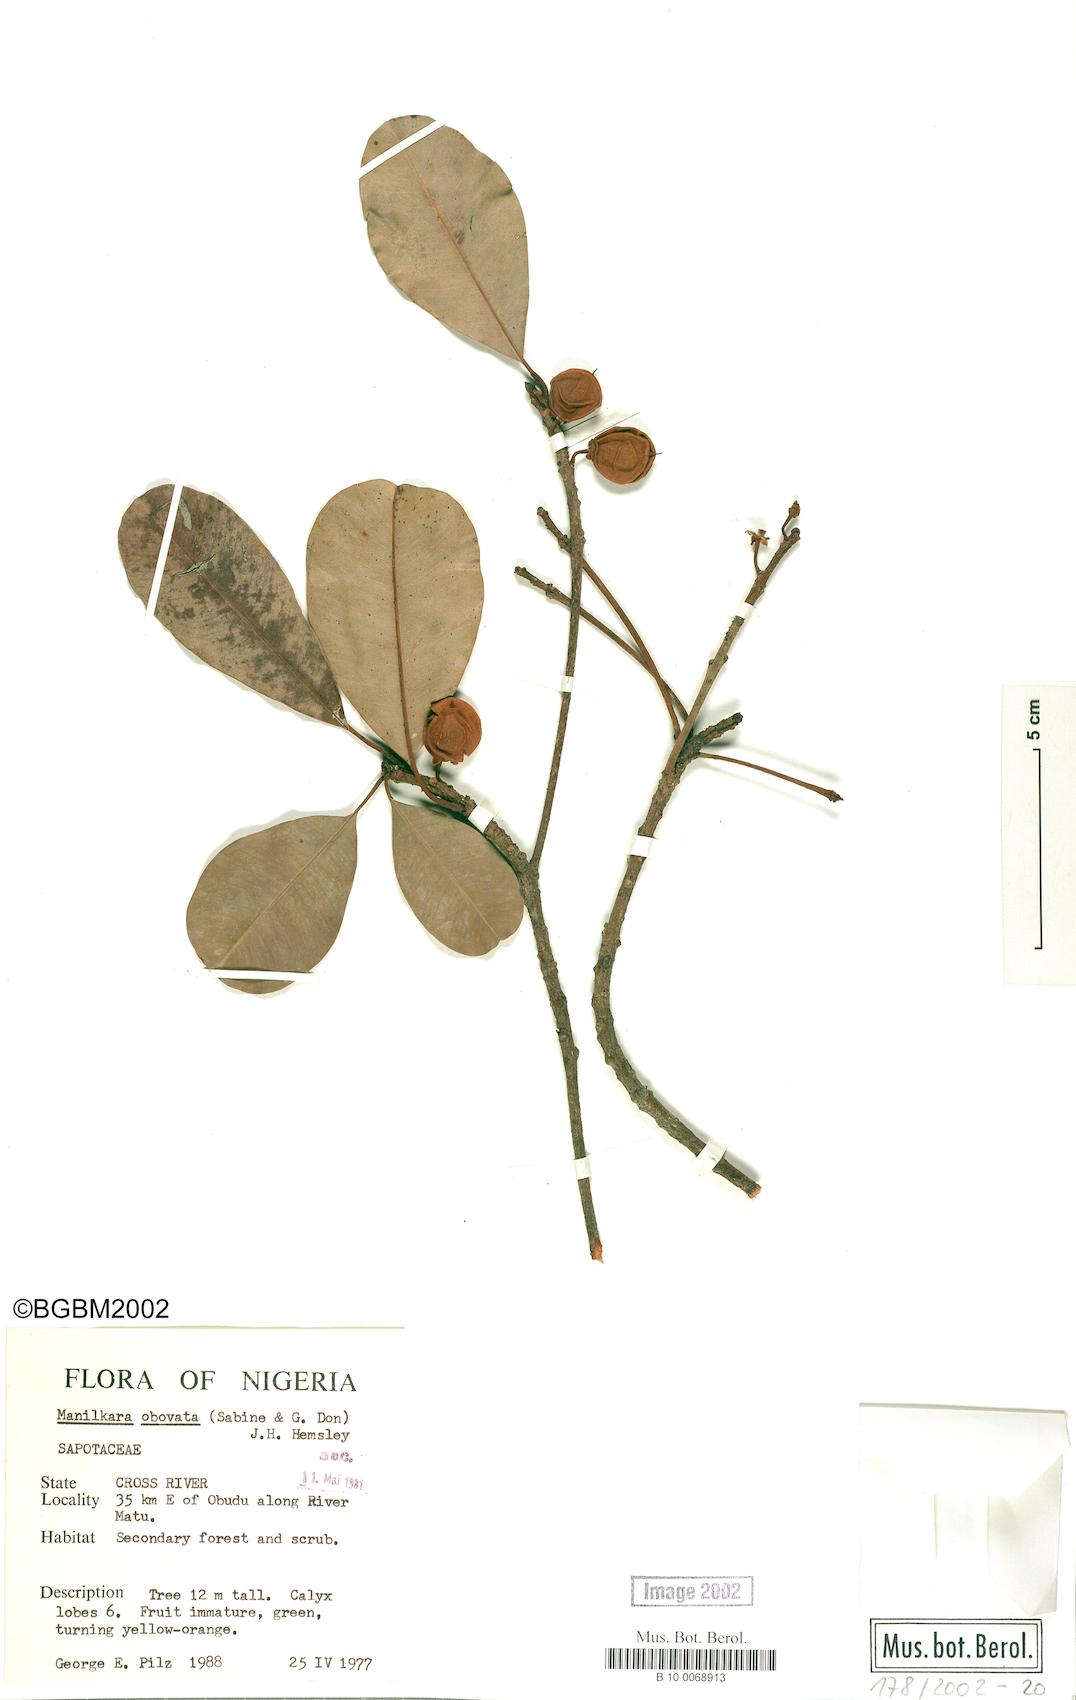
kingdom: Plantae
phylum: Tracheophyta
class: Magnoliopsida
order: Ericales
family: Sapotaceae
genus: Manilkara
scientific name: Manilkara obovata
